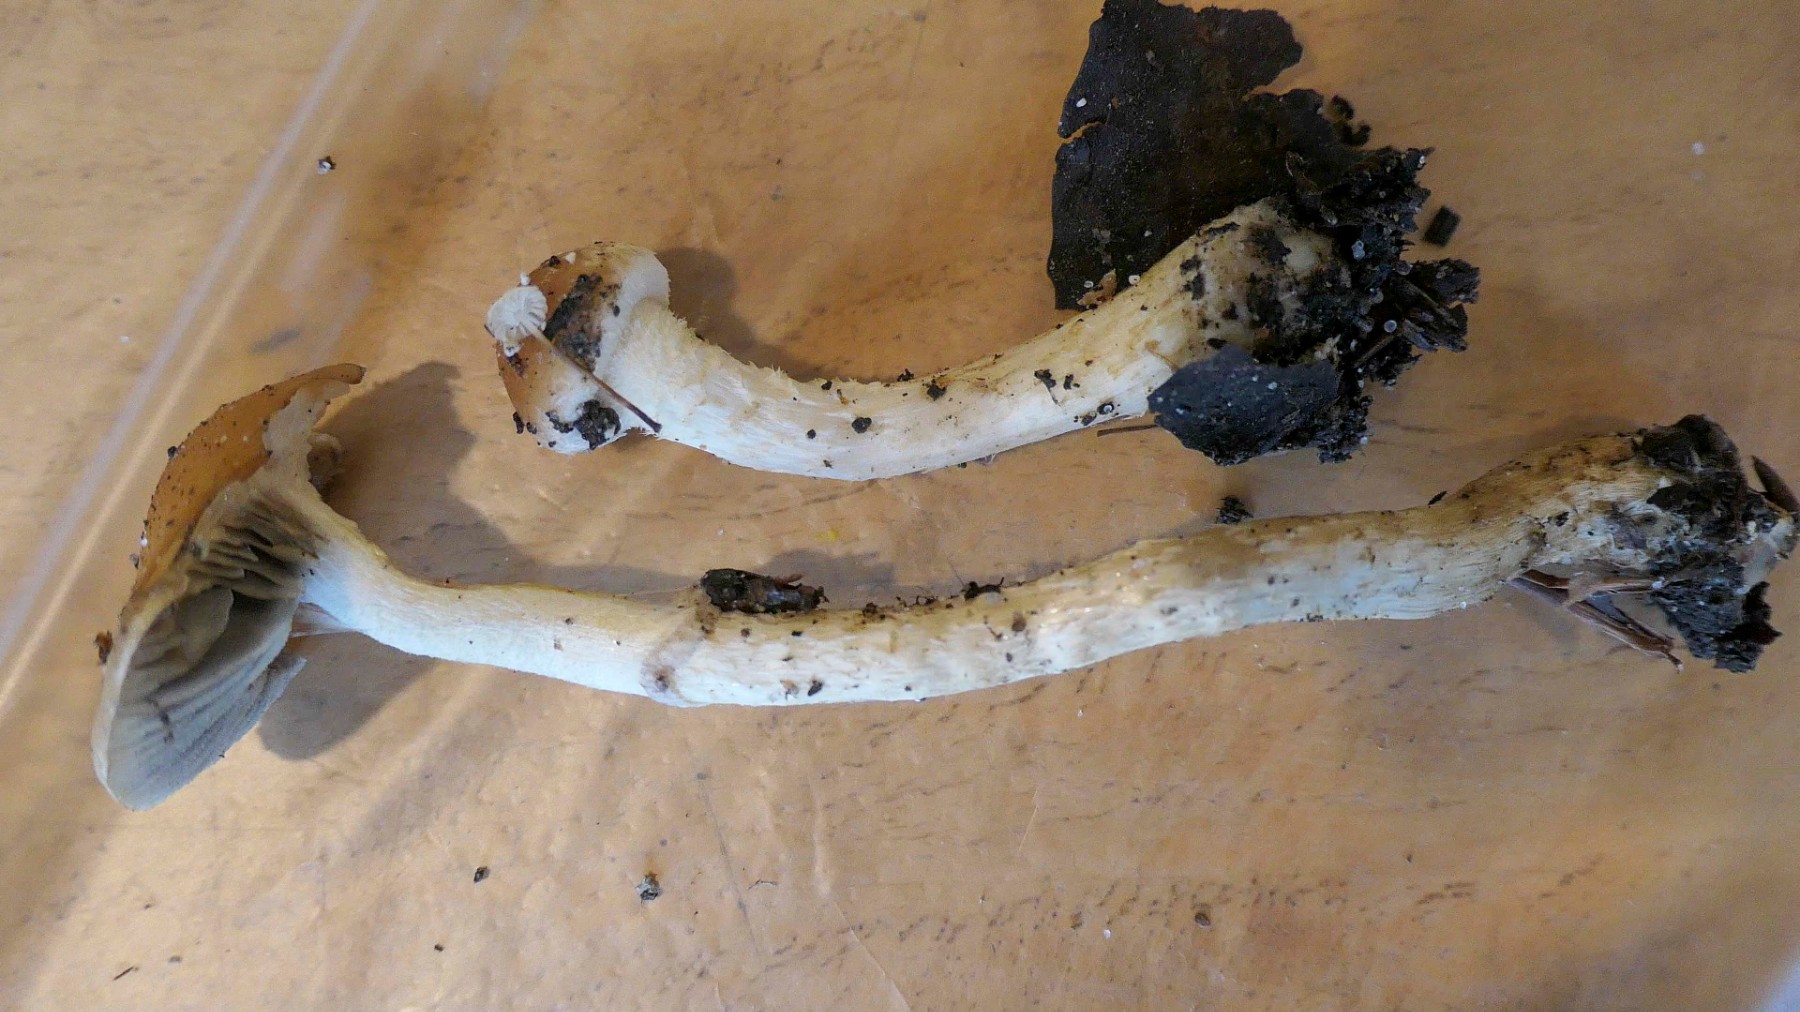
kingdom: Fungi
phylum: Basidiomycota
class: Agaricomycetes
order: Agaricales
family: Strophariaceae
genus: Leratiomyces
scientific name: Leratiomyces squamosus
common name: skællet bredblad
